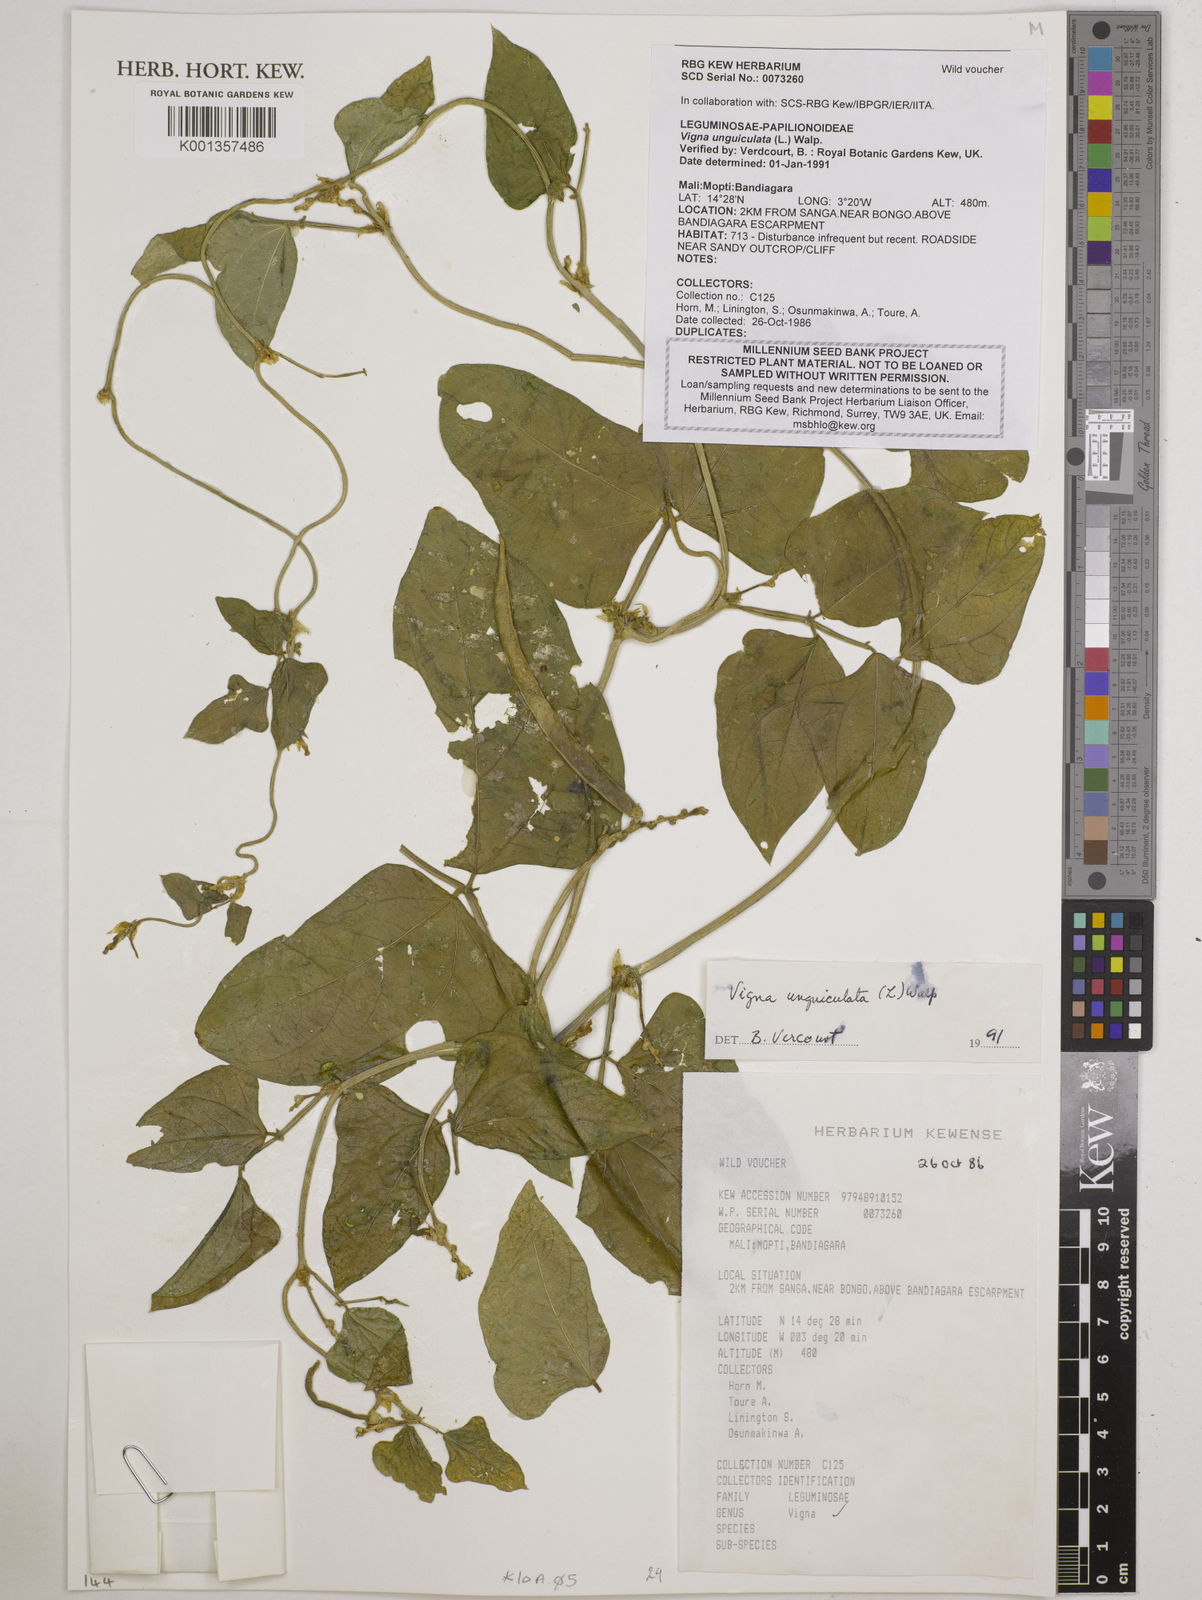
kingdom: Plantae
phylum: Tracheophyta
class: Magnoliopsida
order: Fabales
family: Fabaceae
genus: Vigna
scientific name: Vigna unguiculata
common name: Cowpea
